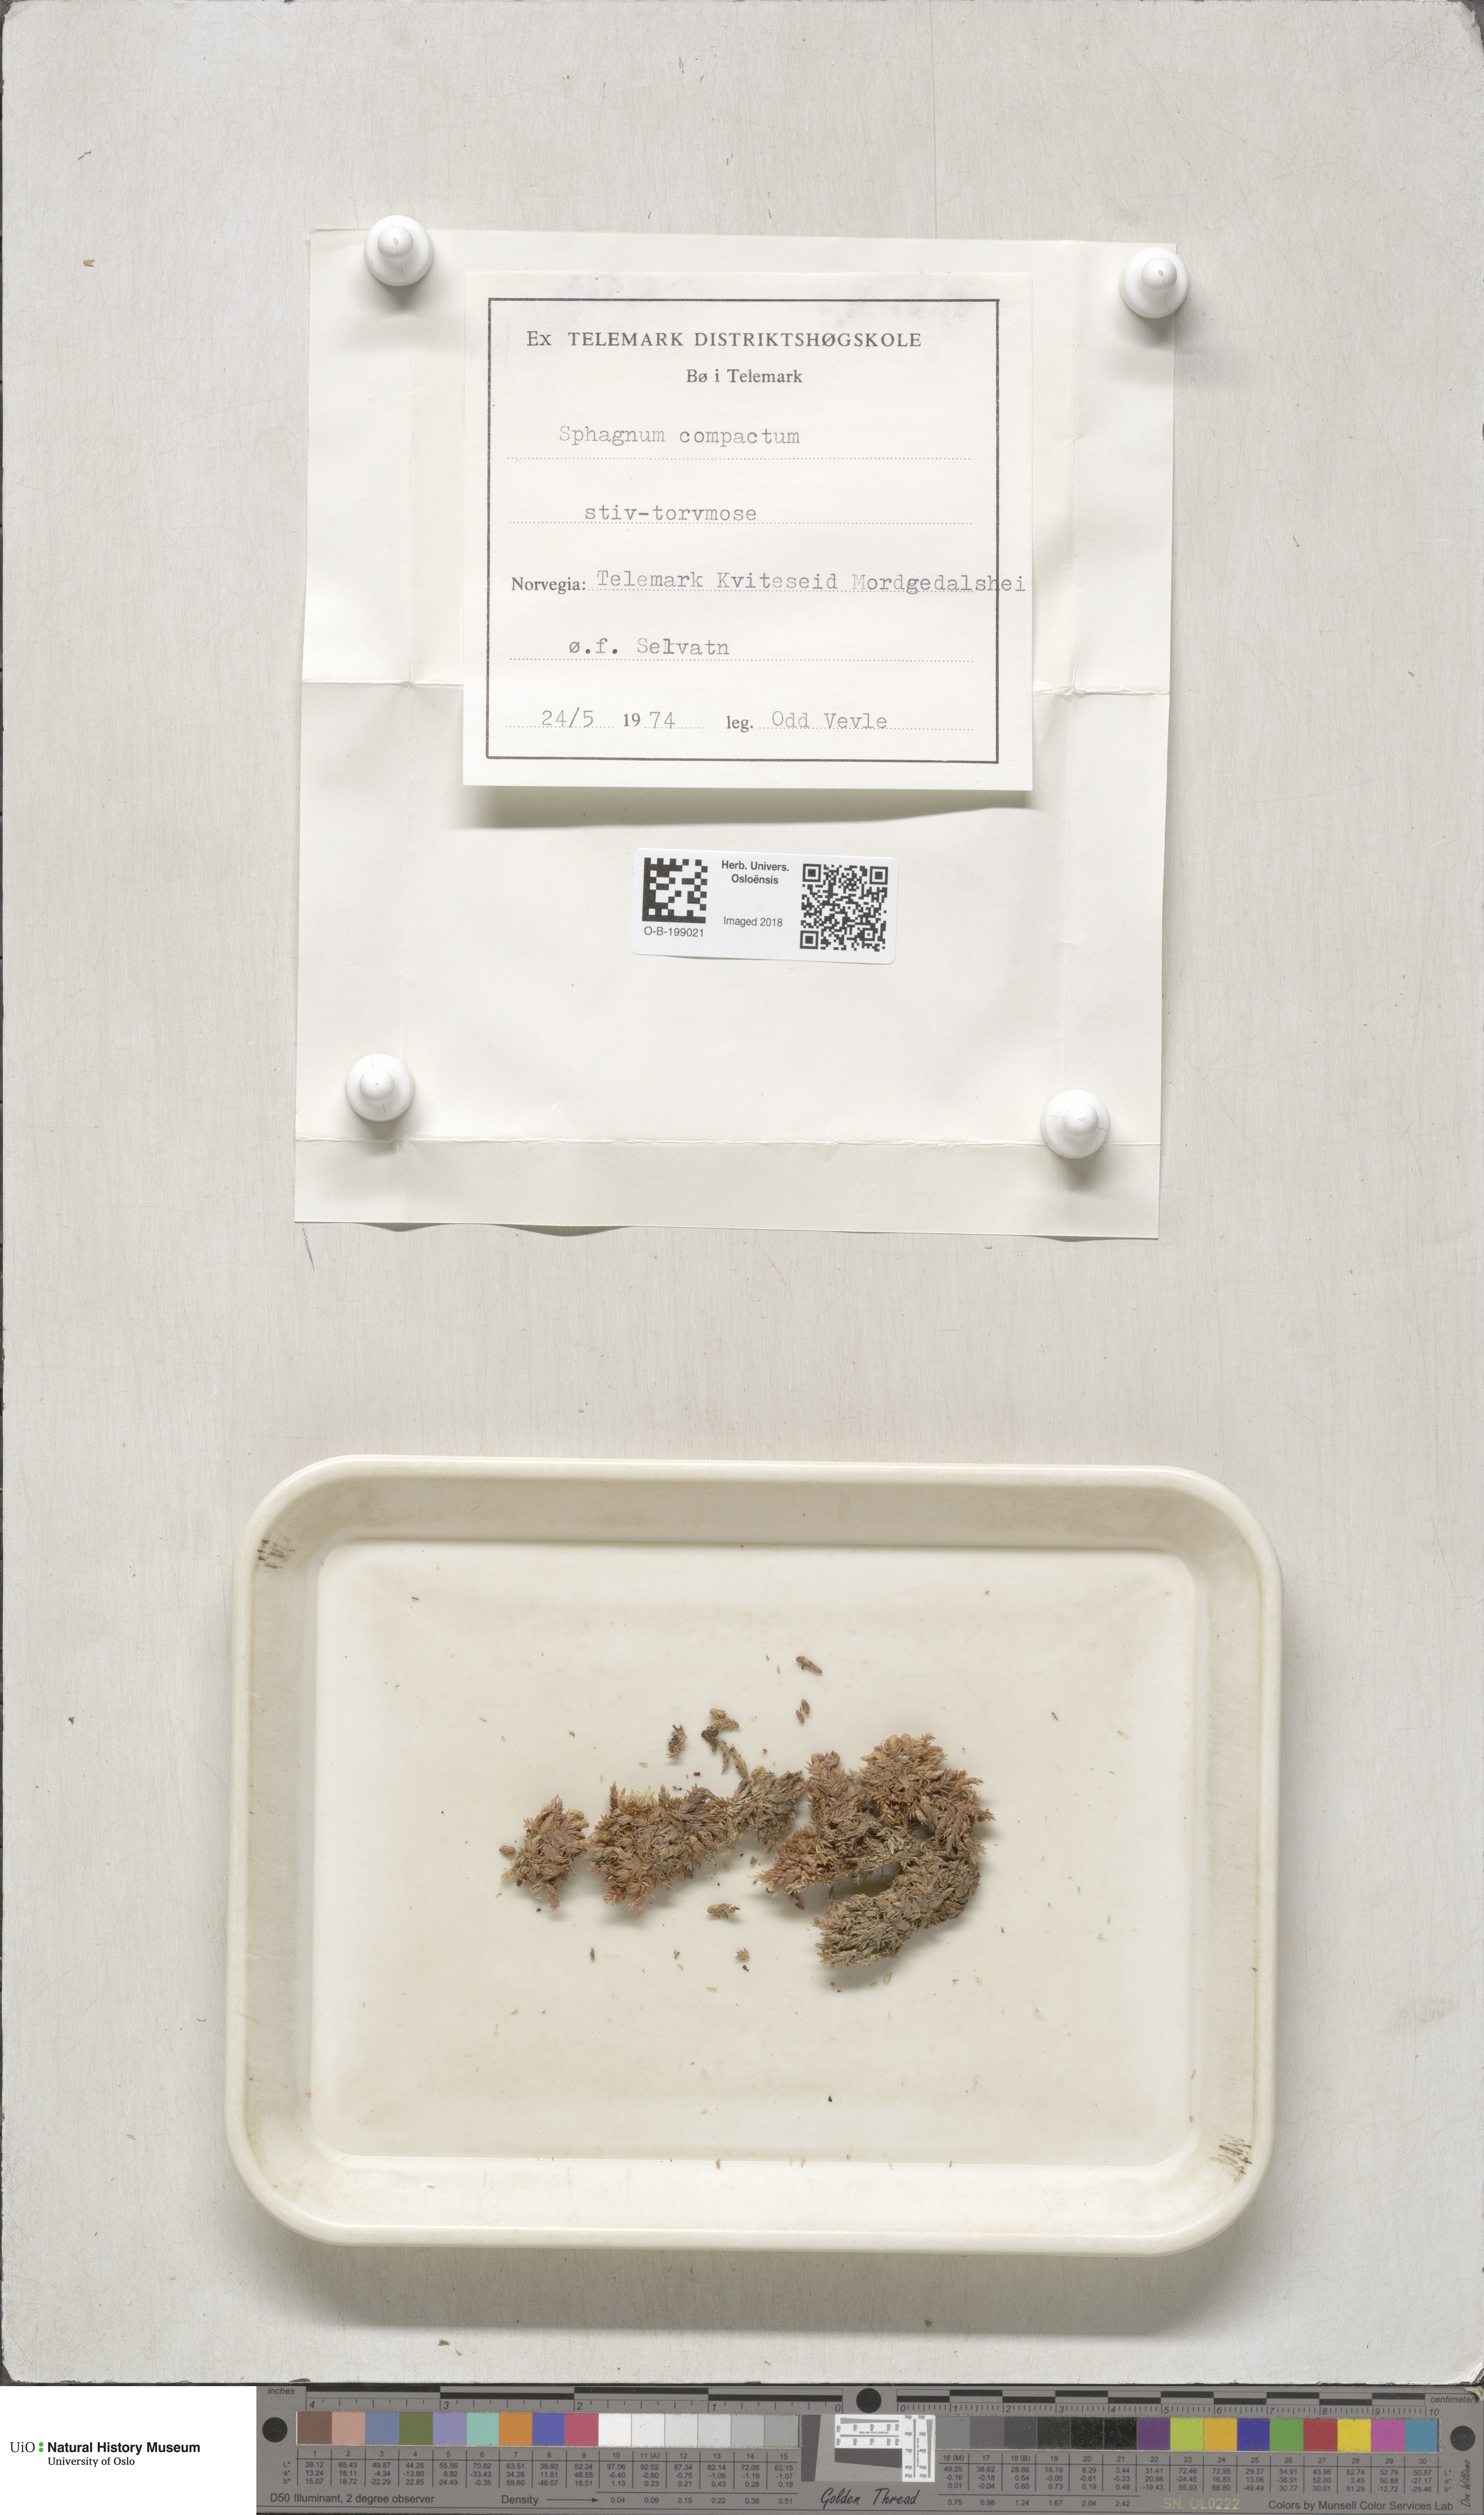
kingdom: Plantae
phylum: Bryophyta
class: Sphagnopsida
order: Sphagnales
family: Sphagnaceae
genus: Sphagnum
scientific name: Sphagnum compactum
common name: Compact peat moss
